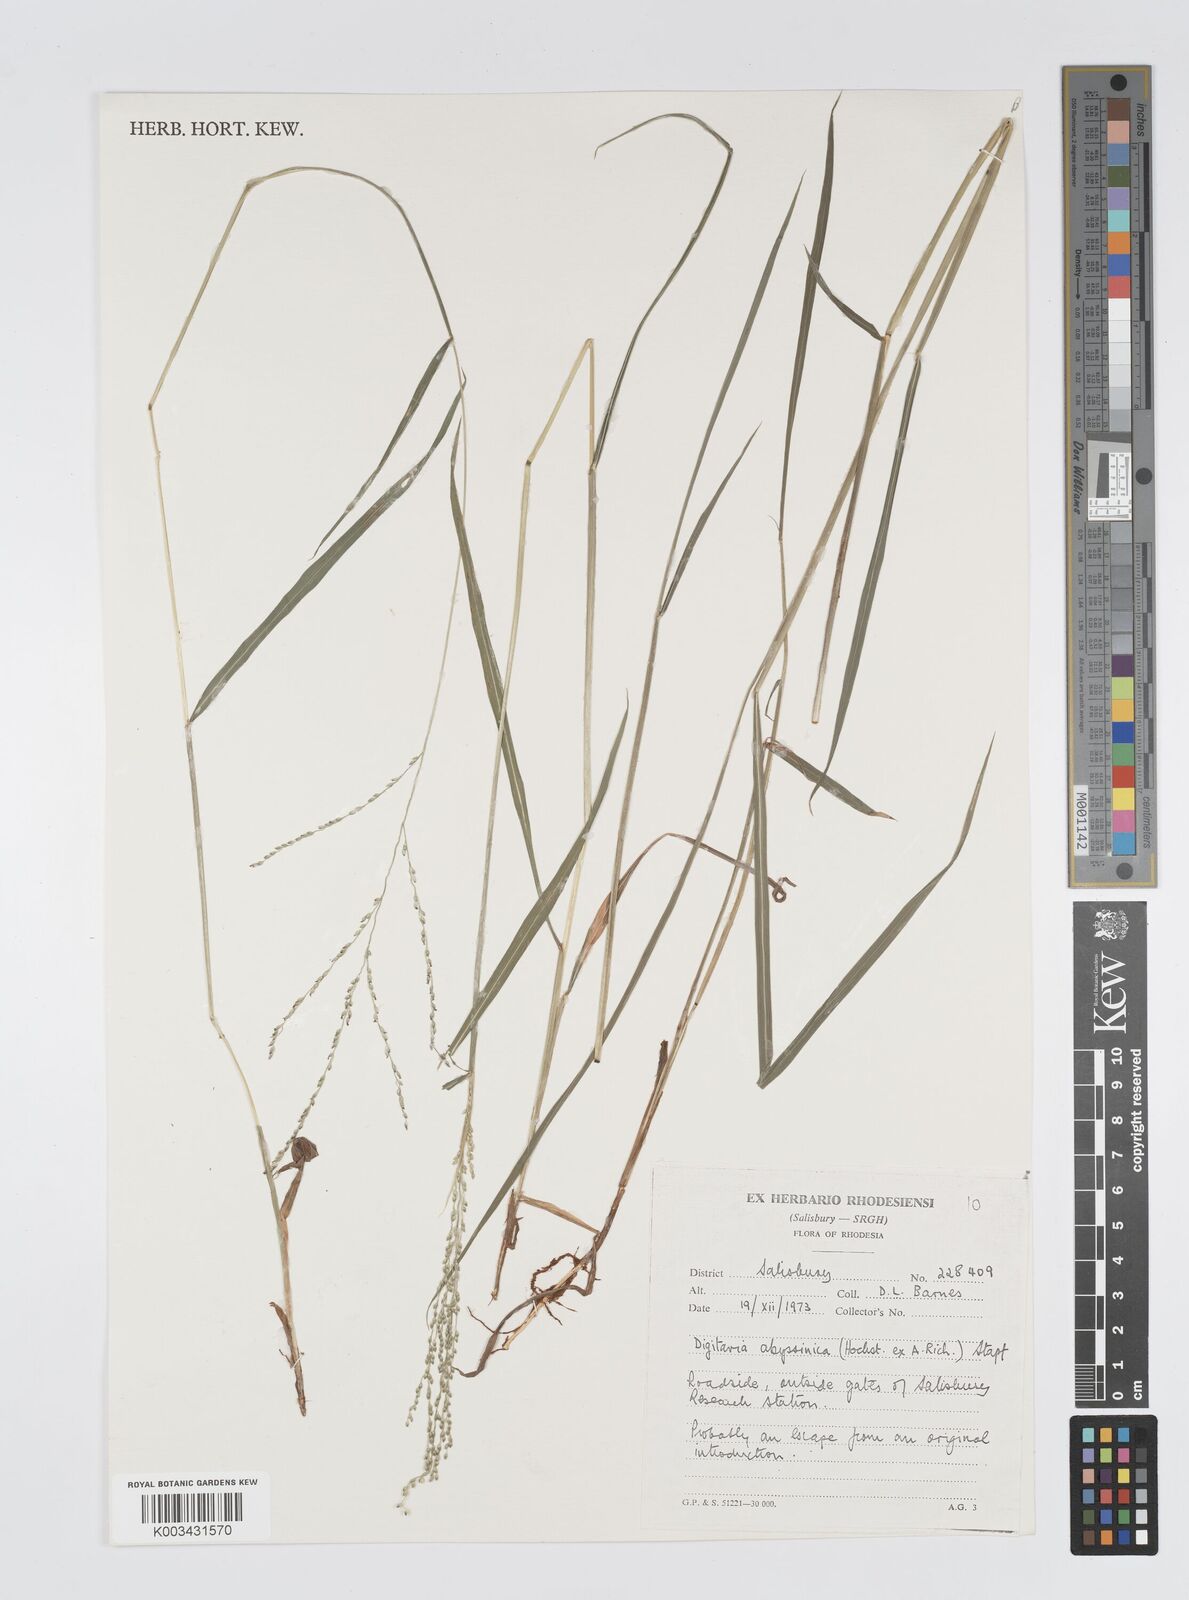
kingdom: Plantae
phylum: Tracheophyta
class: Liliopsida
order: Poales
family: Poaceae
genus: Digitaria
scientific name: Digitaria abyssinica
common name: African couchgrass
